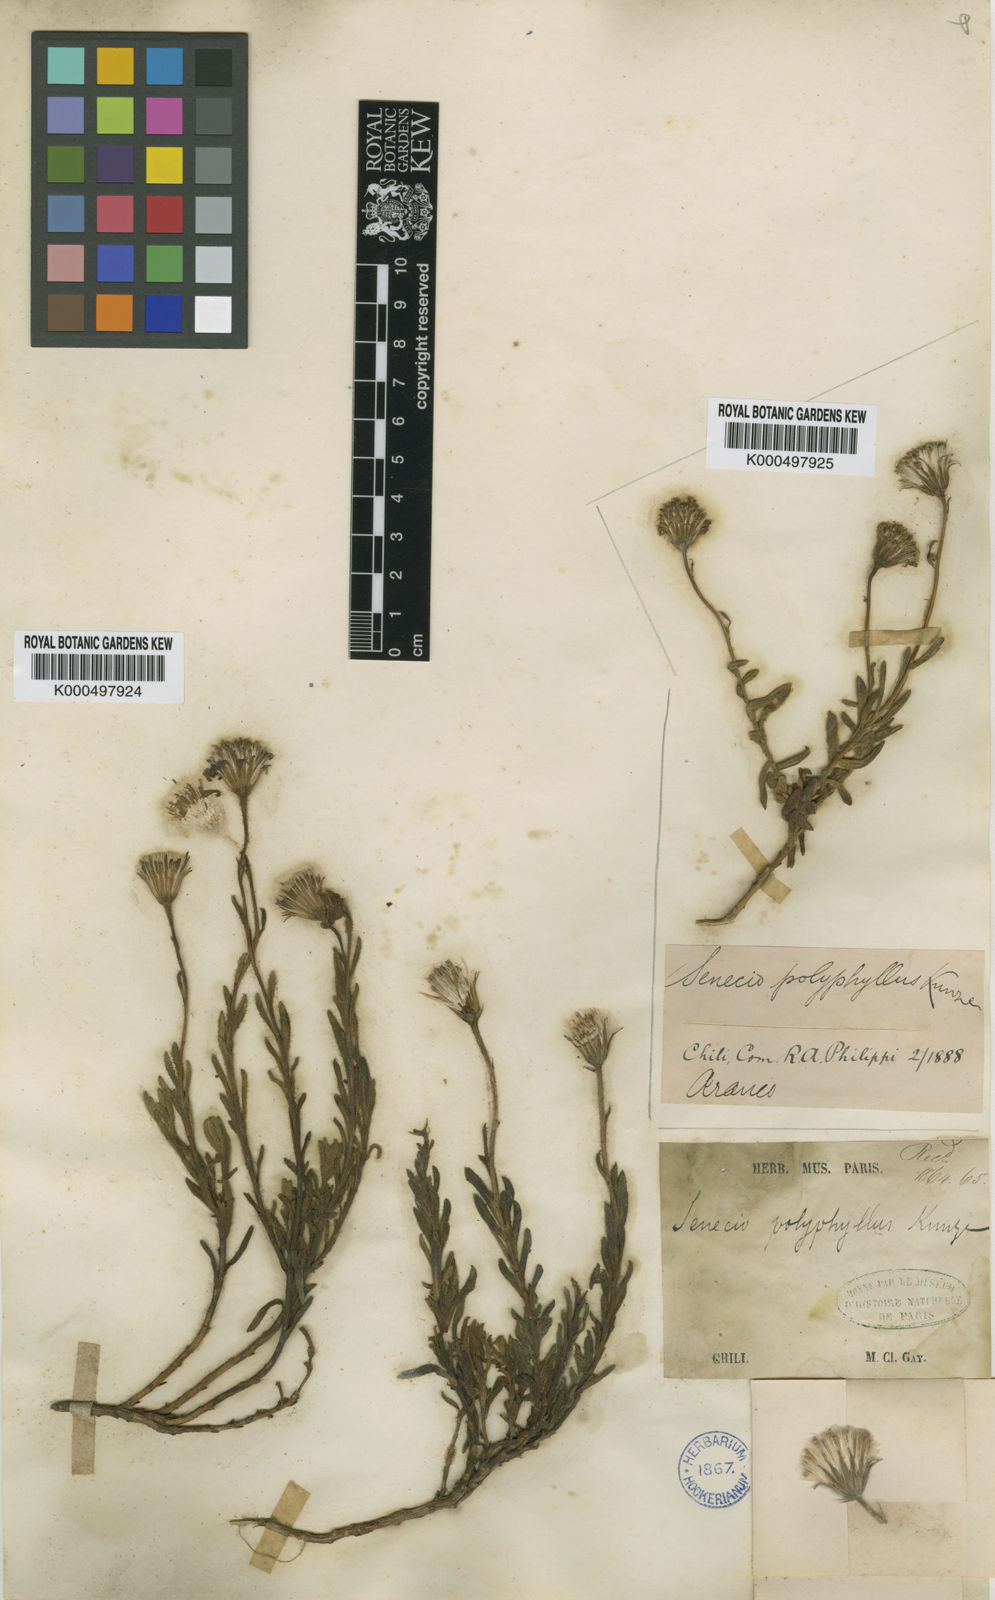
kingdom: Plantae
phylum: Tracheophyta
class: Magnoliopsida
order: Asterales
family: Asteraceae
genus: Senecio
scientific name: Senecio polyphyllus
